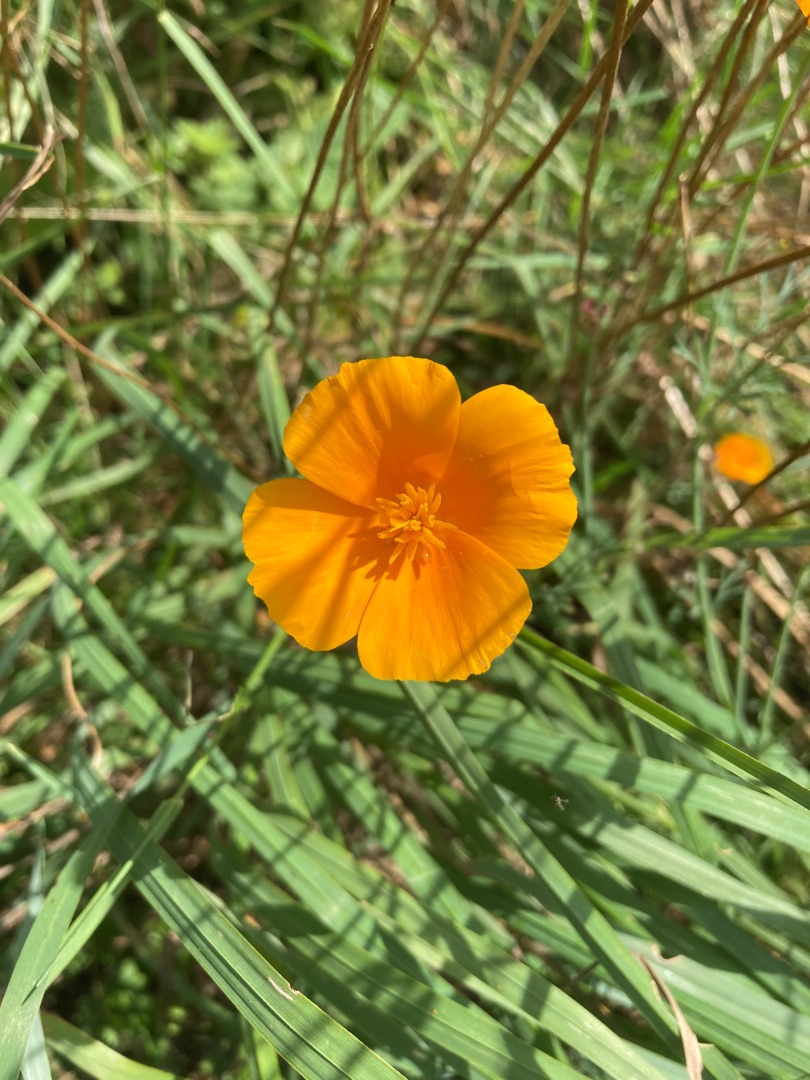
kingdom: Plantae
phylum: Tracheophyta
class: Magnoliopsida
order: Ranunculales
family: Papaveraceae
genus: Eschscholzia
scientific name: Eschscholzia californica
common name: Guldvalmue
